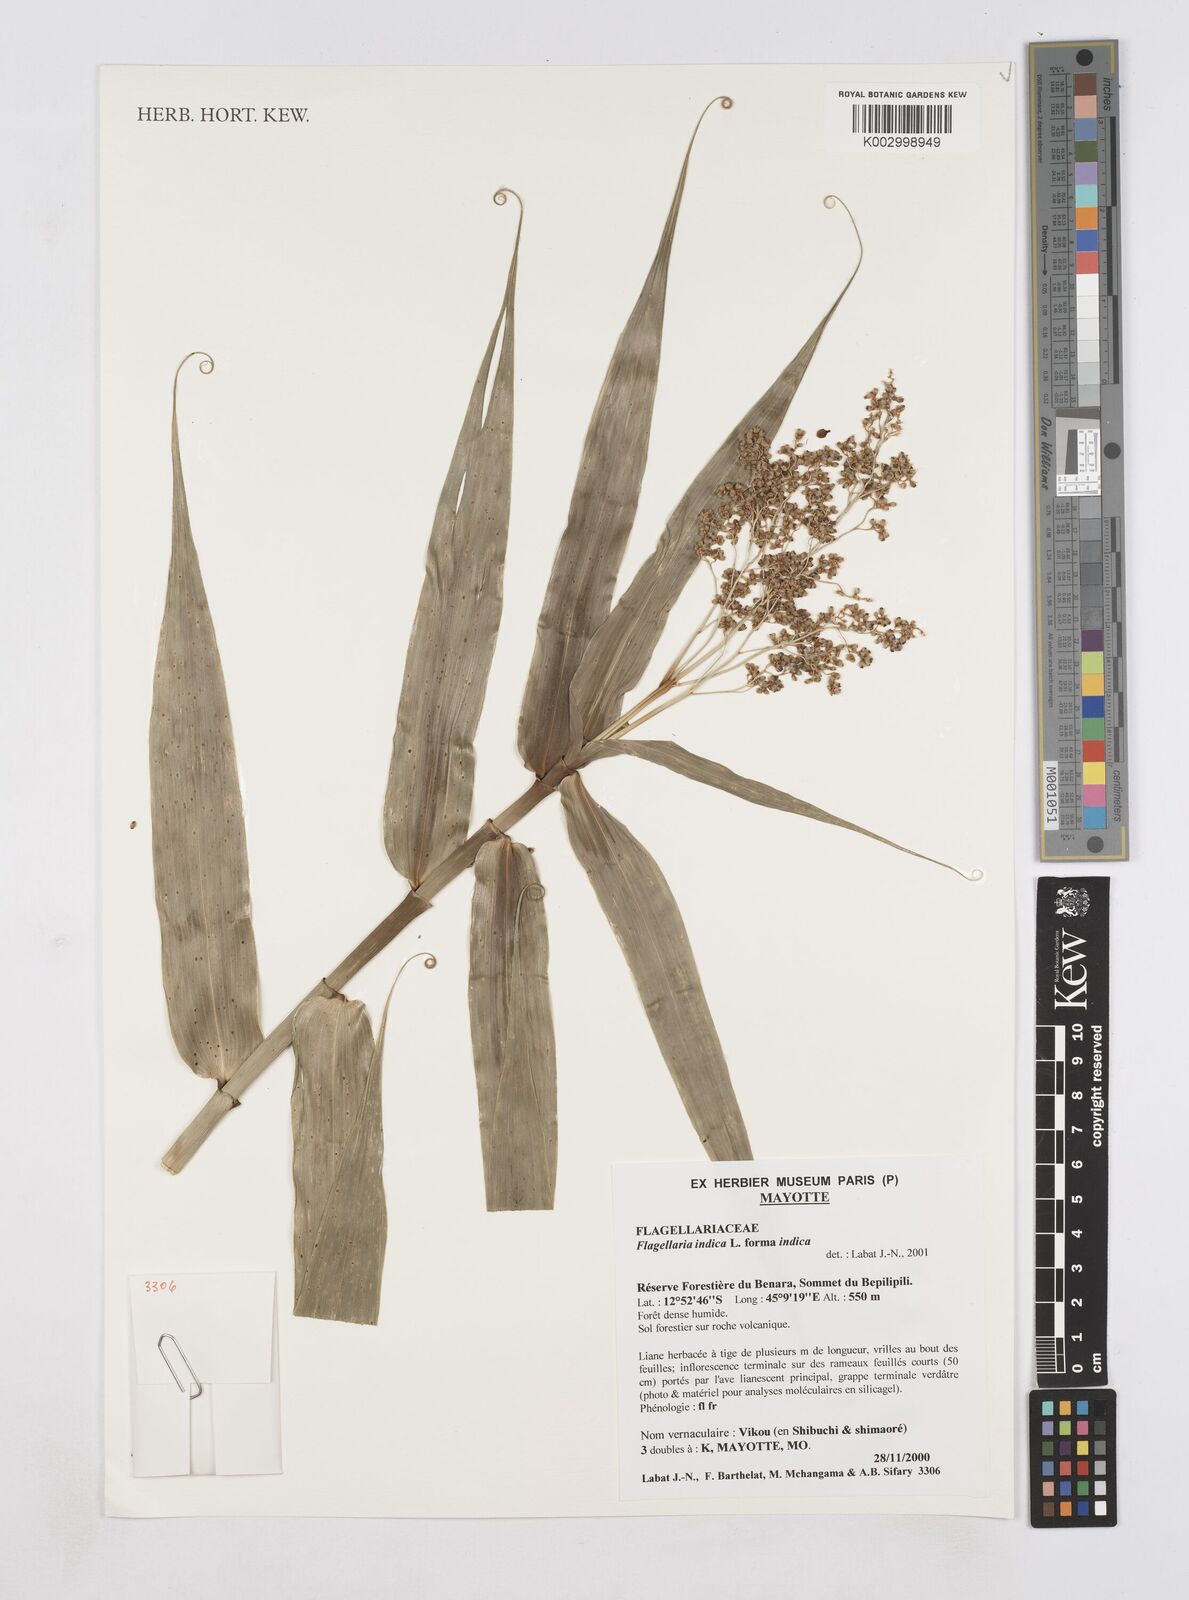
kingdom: Plantae
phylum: Tracheophyta
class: Liliopsida
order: Poales
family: Flagellariaceae
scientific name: Flagellariaceae
